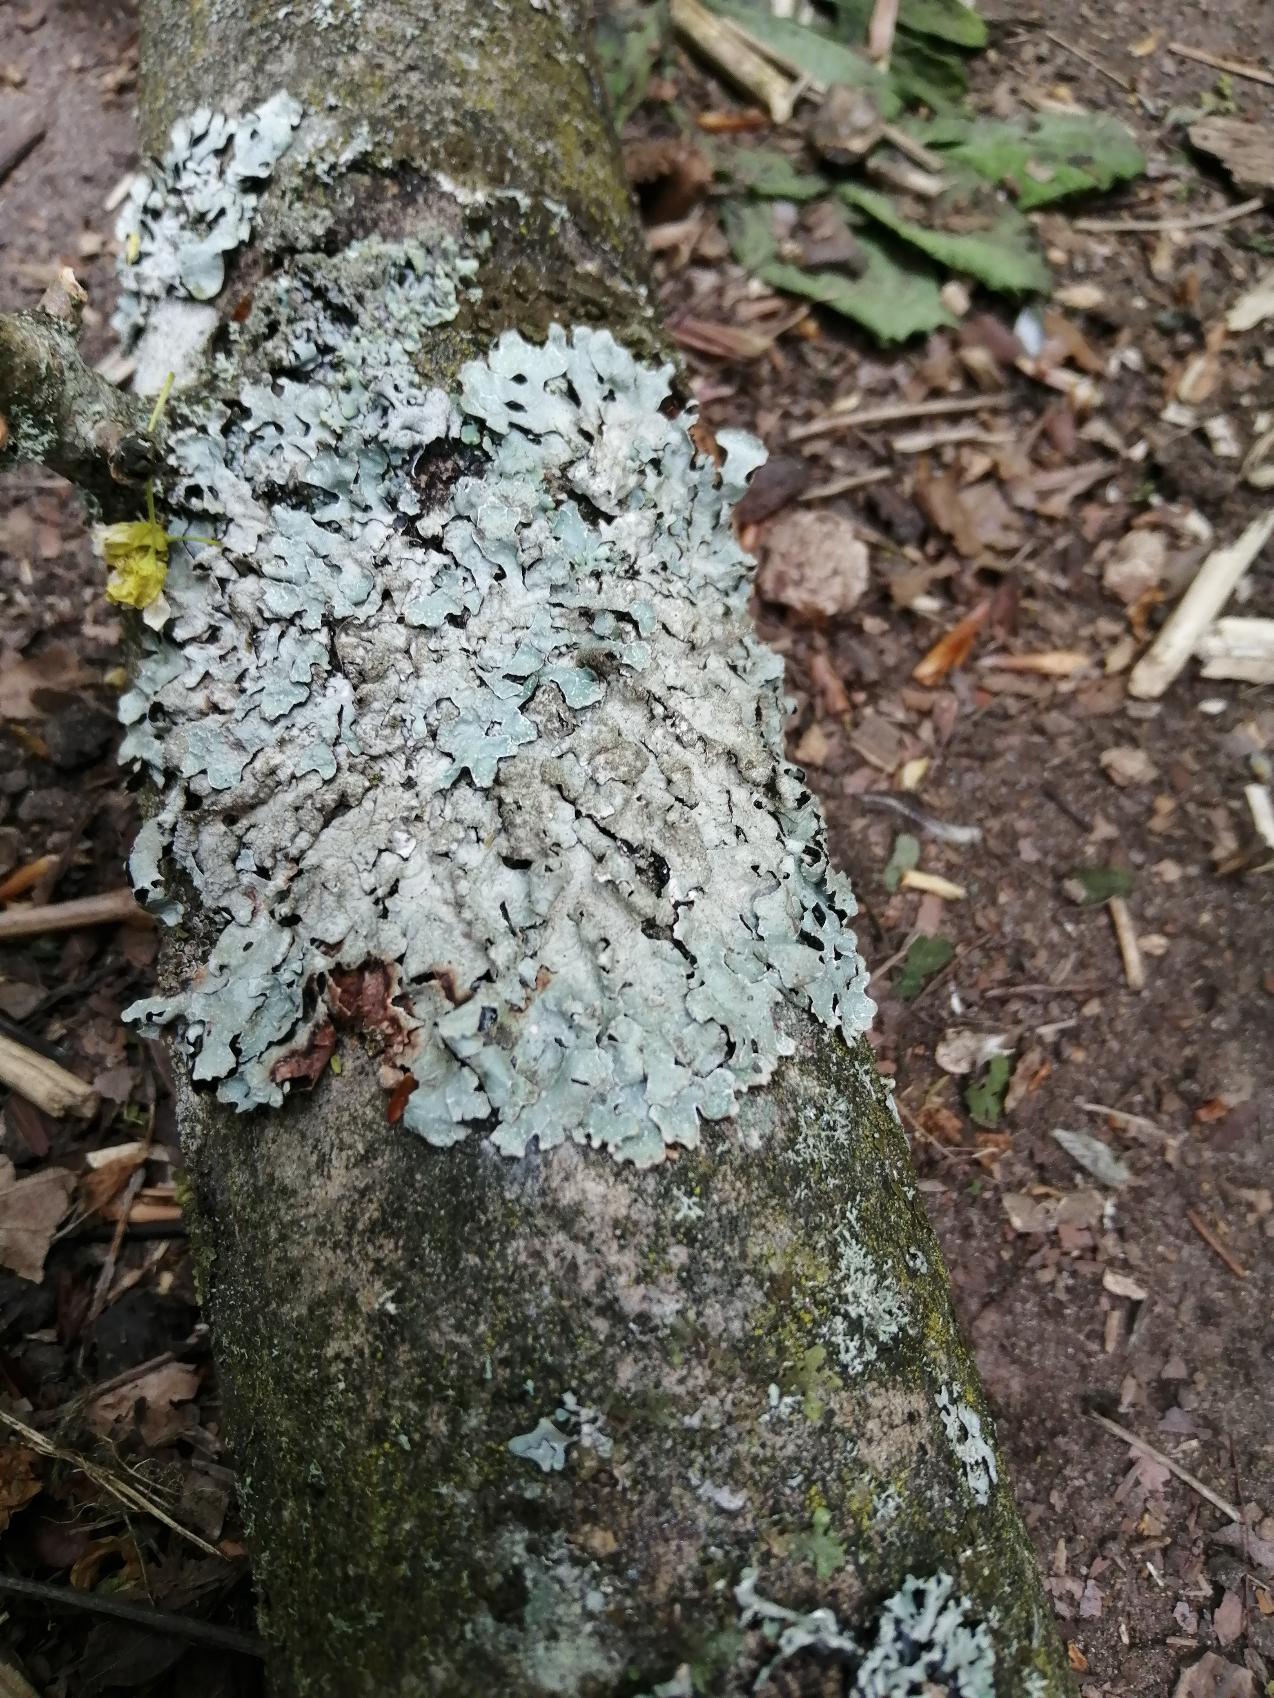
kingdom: Fungi
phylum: Ascomycota
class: Lecanoromycetes
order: Lecanorales
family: Parmeliaceae
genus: Parmelia
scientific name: Parmelia sulcata
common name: Rynket skållav
